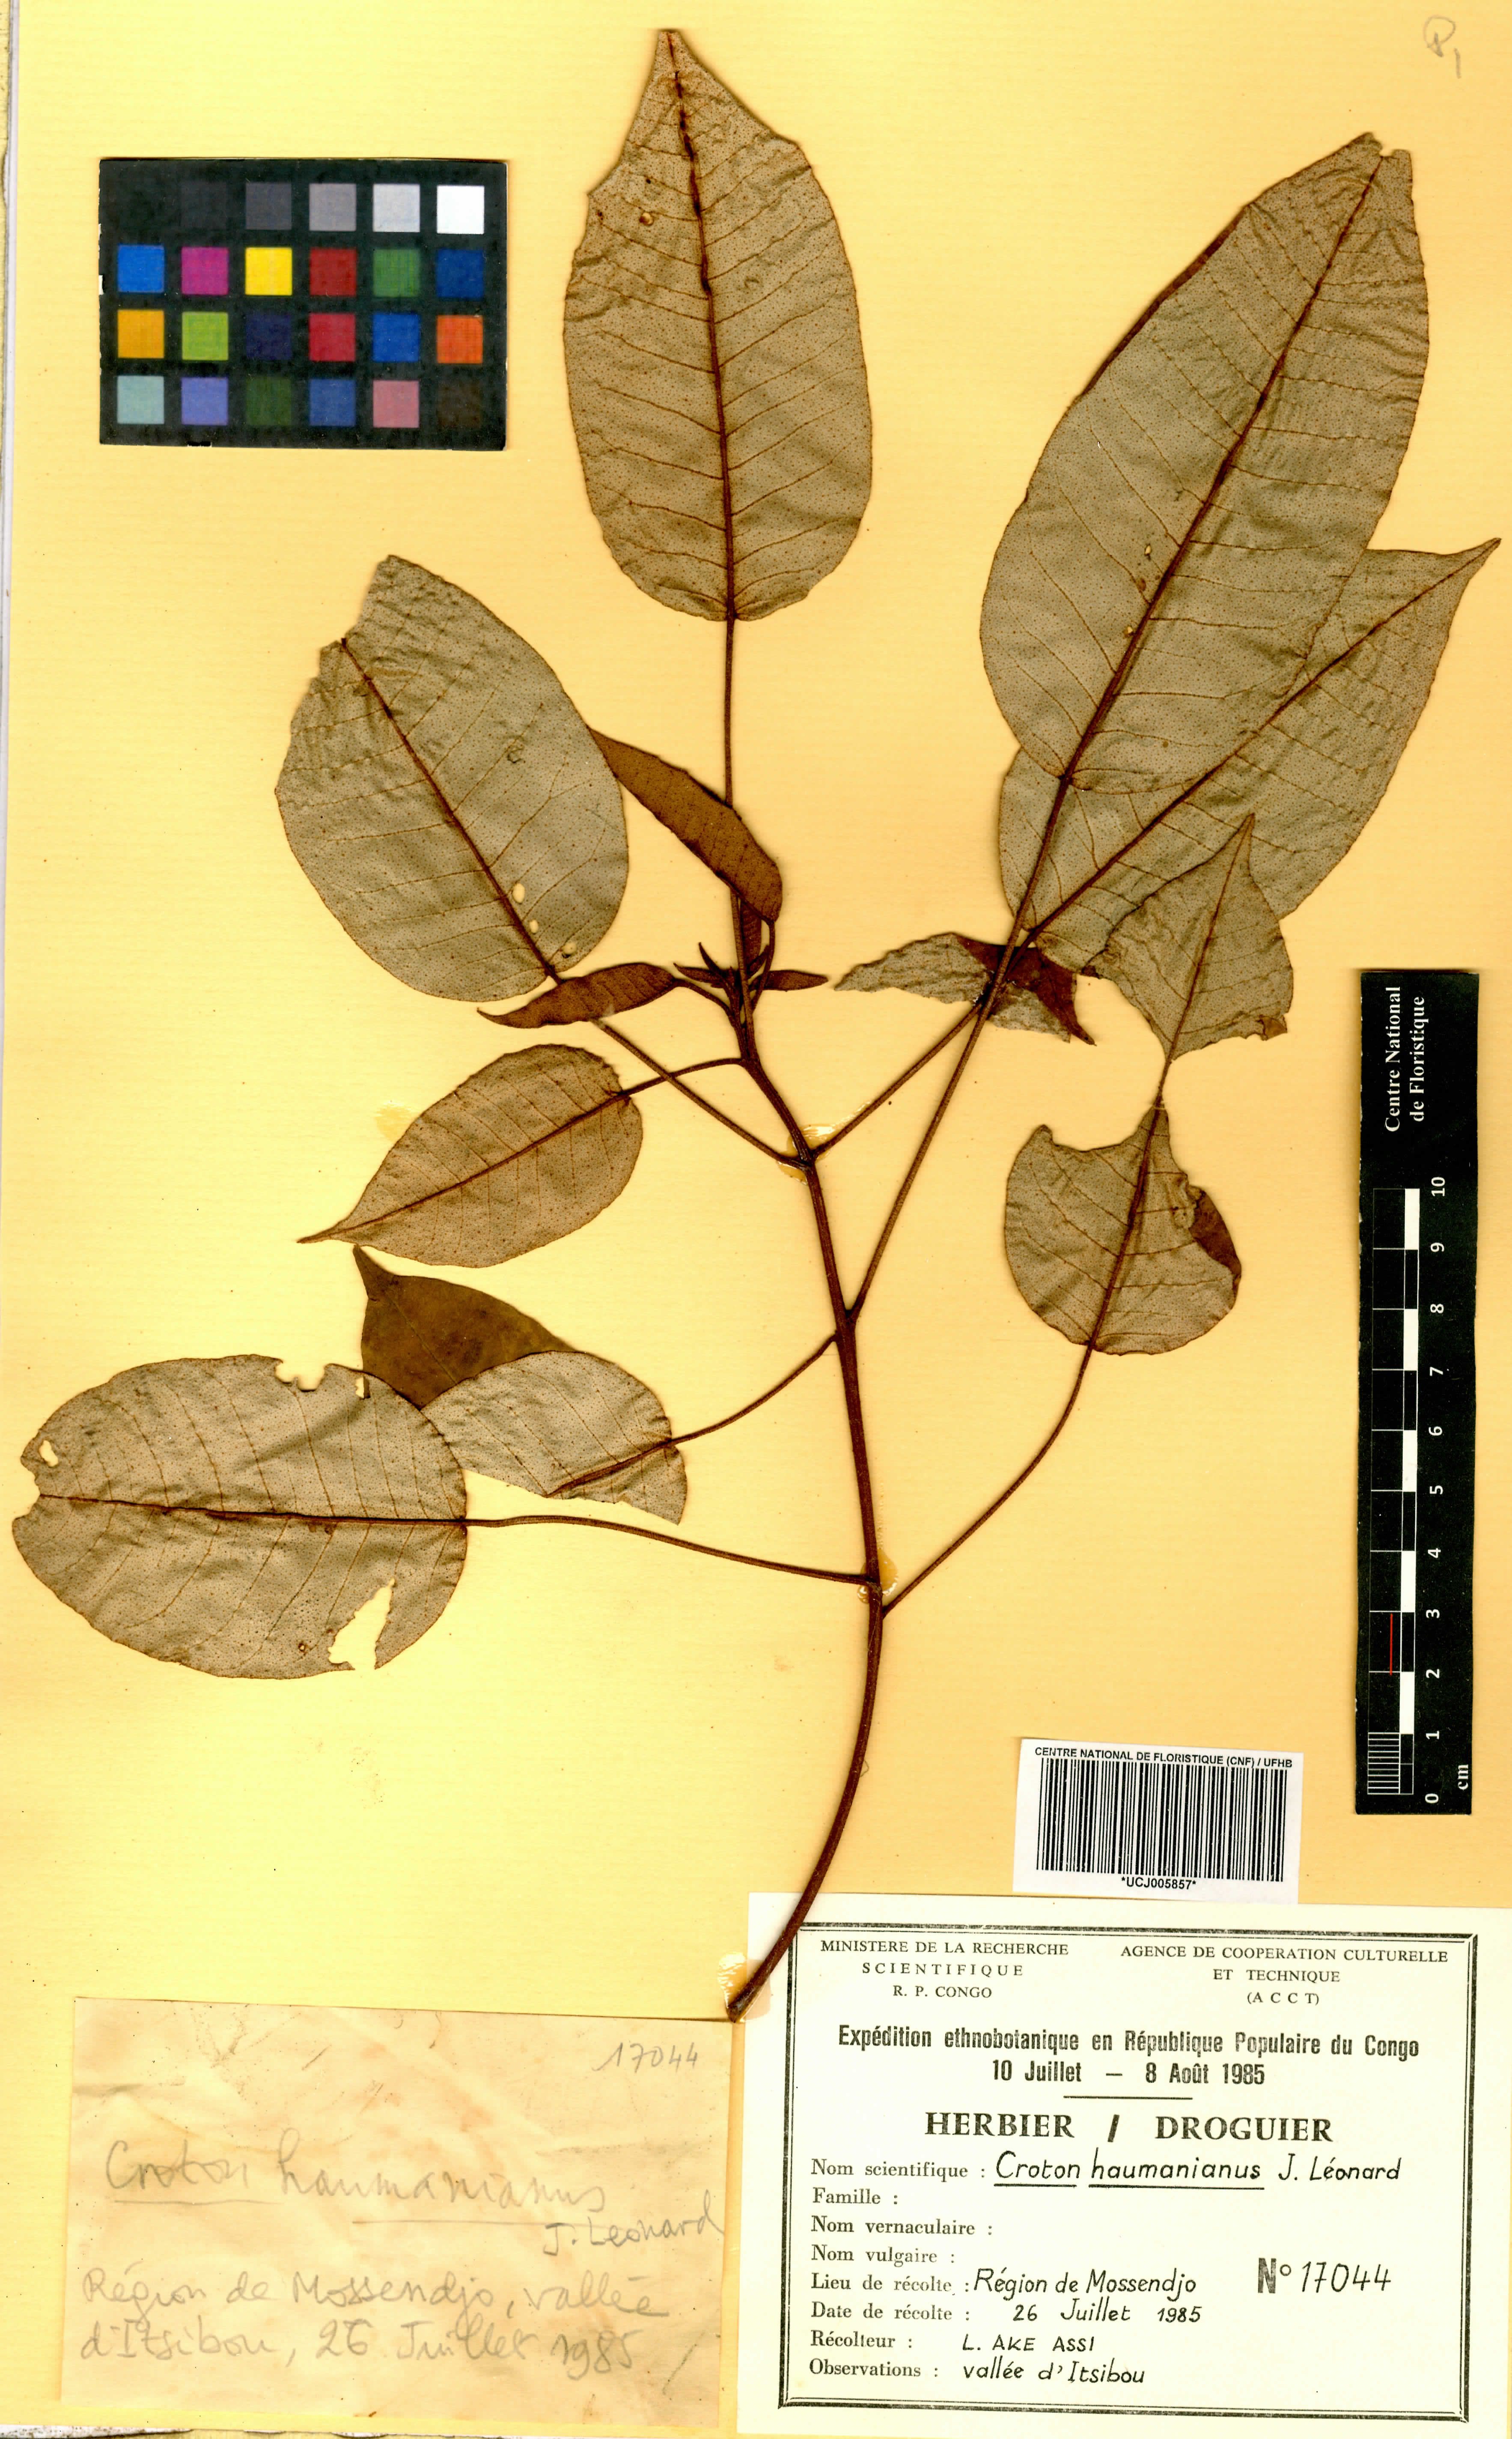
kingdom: Plantae
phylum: Tracheophyta
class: Magnoliopsida
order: Malpighiales
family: Euphorbiaceae
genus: Croton
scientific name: Croton haumanianus
